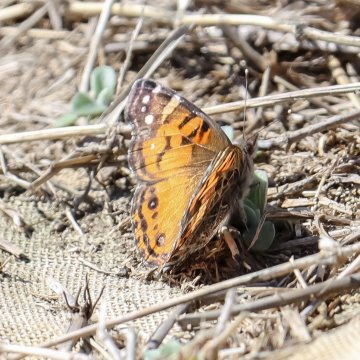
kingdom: Animalia
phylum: Arthropoda
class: Insecta
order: Lepidoptera
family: Nymphalidae
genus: Vanessa
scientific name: Vanessa virginiensis
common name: American Lady
